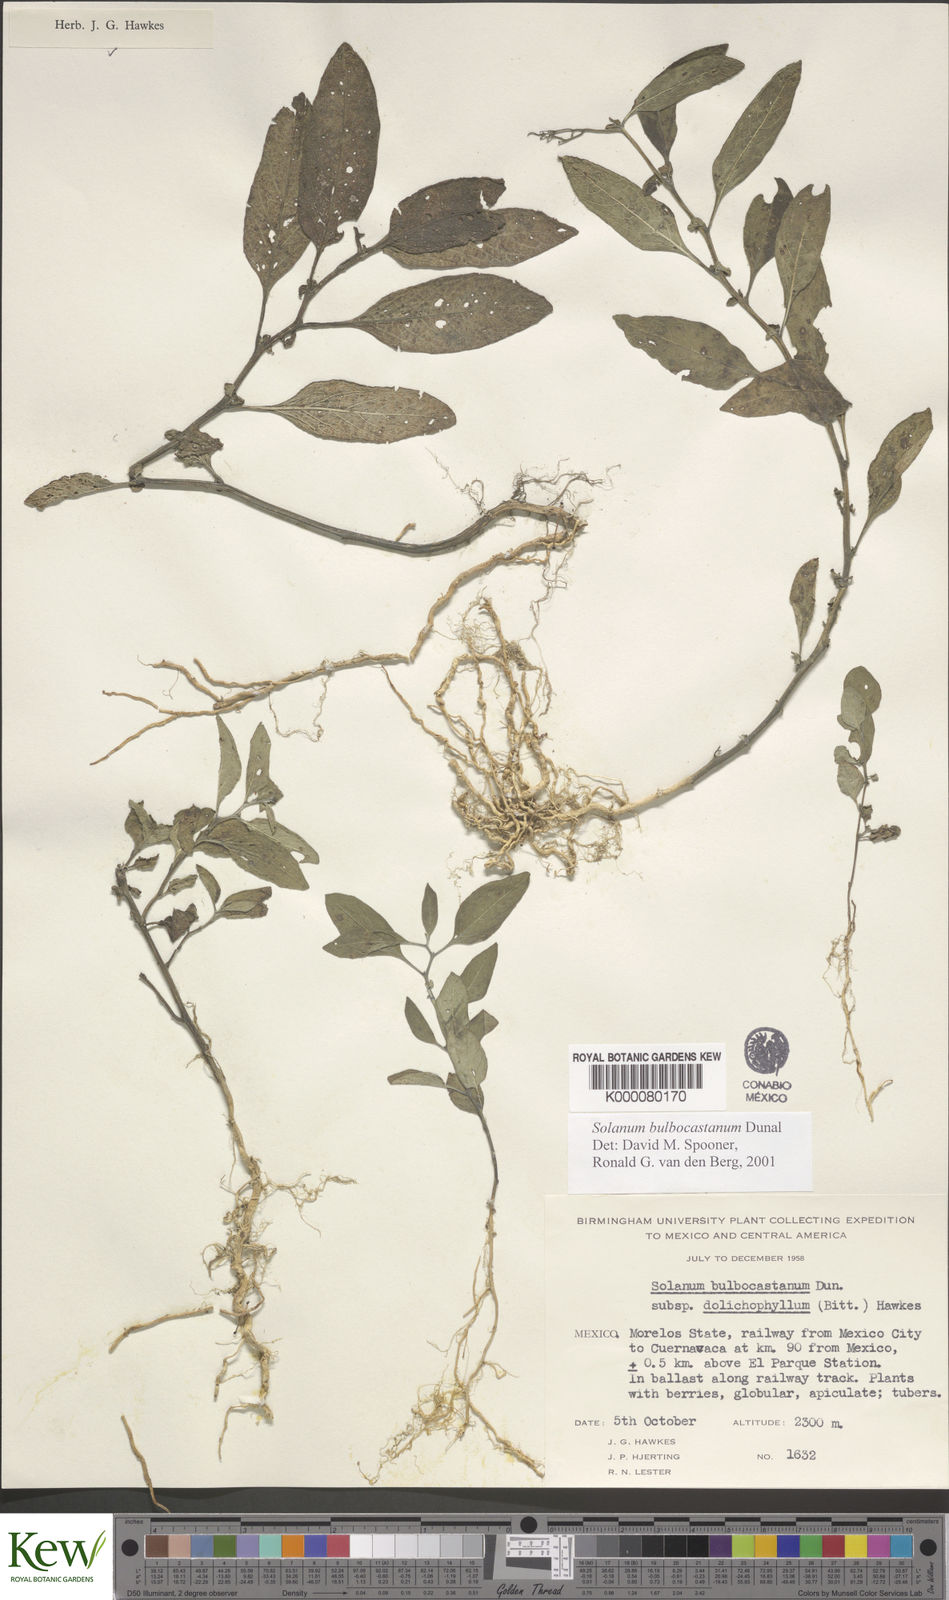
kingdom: Plantae
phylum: Tracheophyta
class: Magnoliopsida
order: Solanales
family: Solanaceae
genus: Solanum
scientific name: Solanum bulbocastanum
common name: Ornamental nightshade
